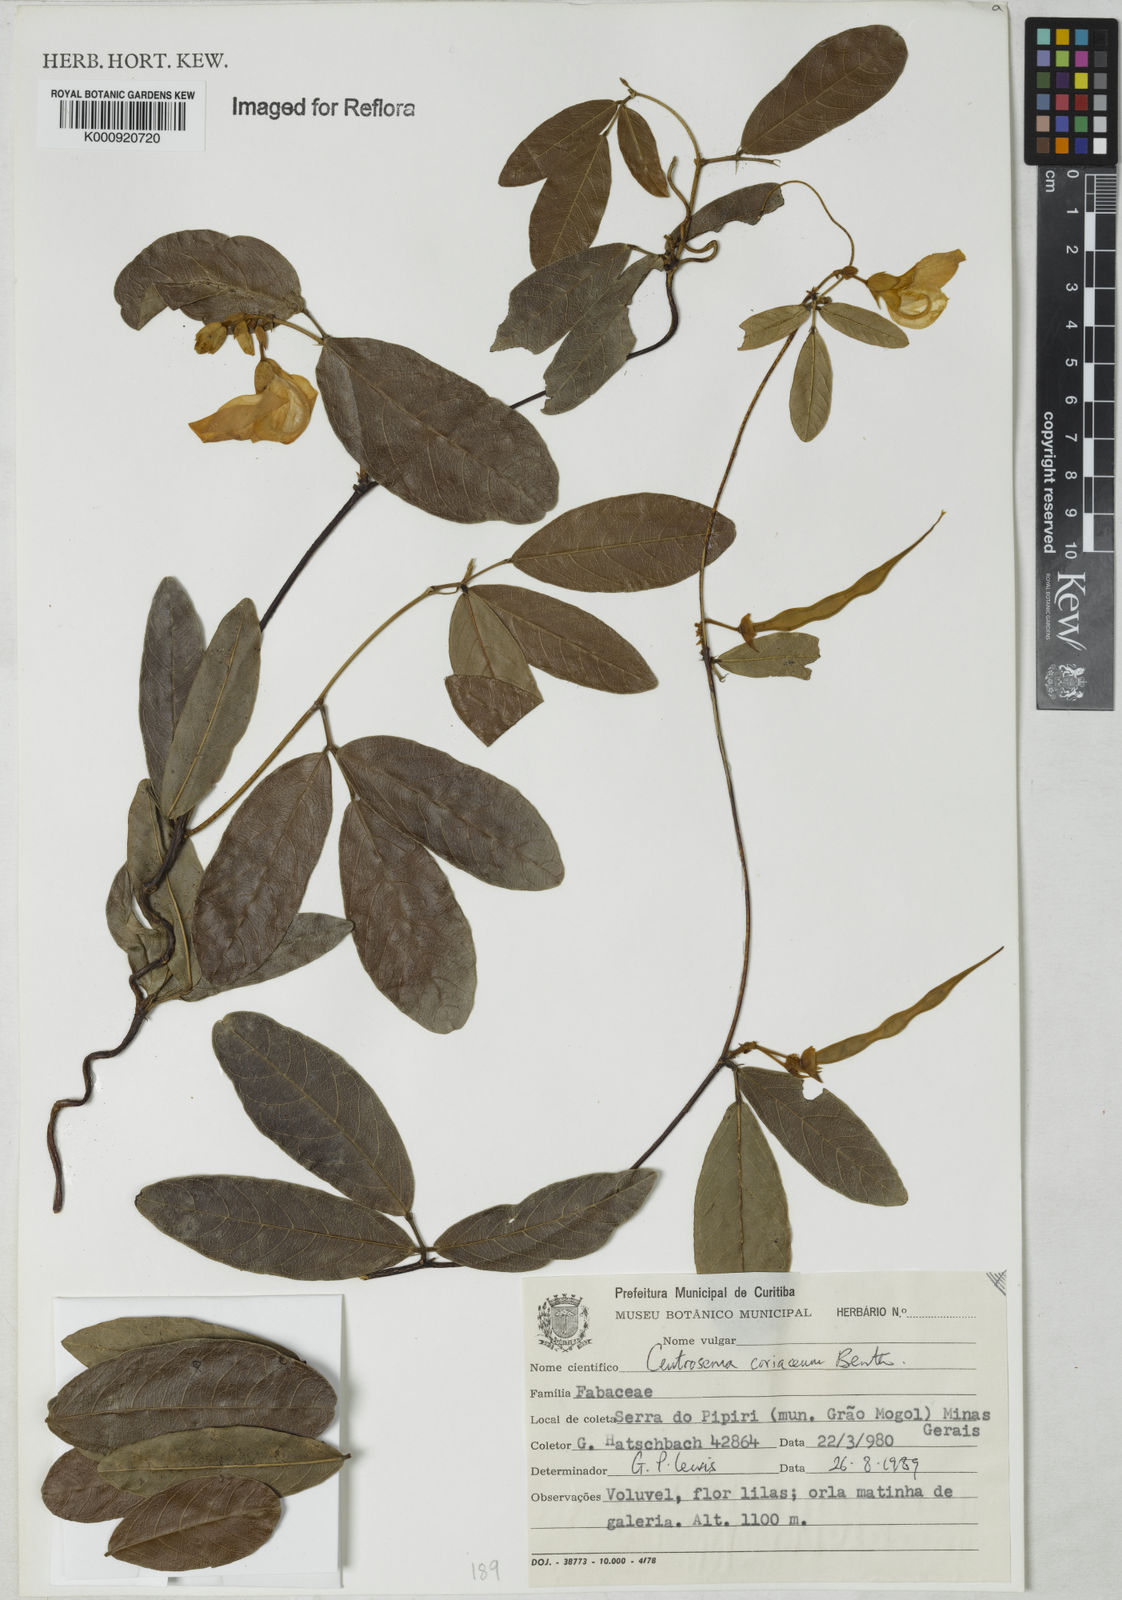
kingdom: Plantae
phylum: Tracheophyta
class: Magnoliopsida
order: Fabales
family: Fabaceae
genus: Centrosema
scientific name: Centrosema coriaceum
